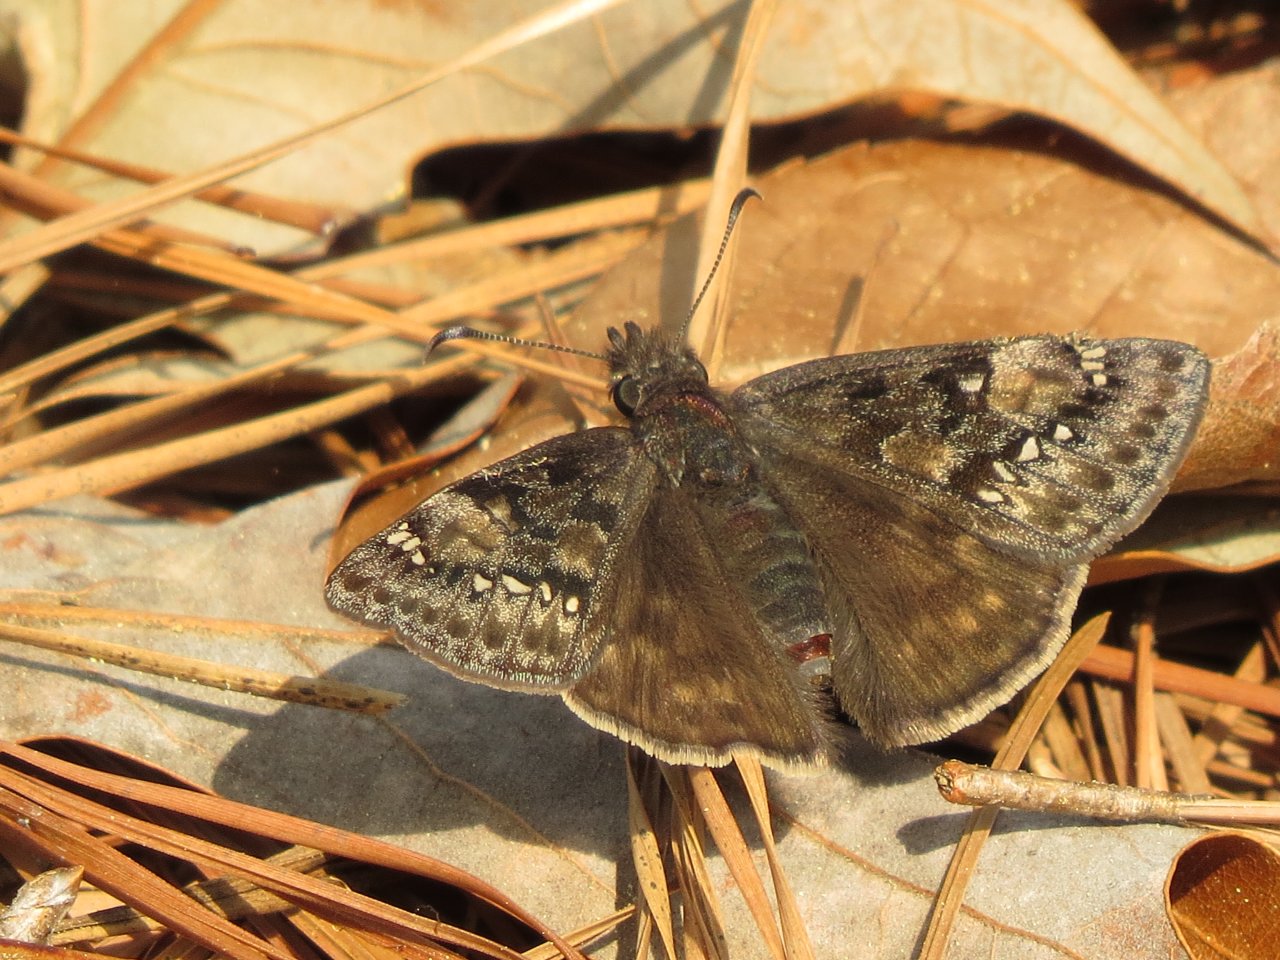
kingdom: Animalia
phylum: Arthropoda
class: Insecta
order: Lepidoptera
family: Hesperiidae
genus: Gesta
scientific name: Gesta
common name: Juvenal's Duskywing
